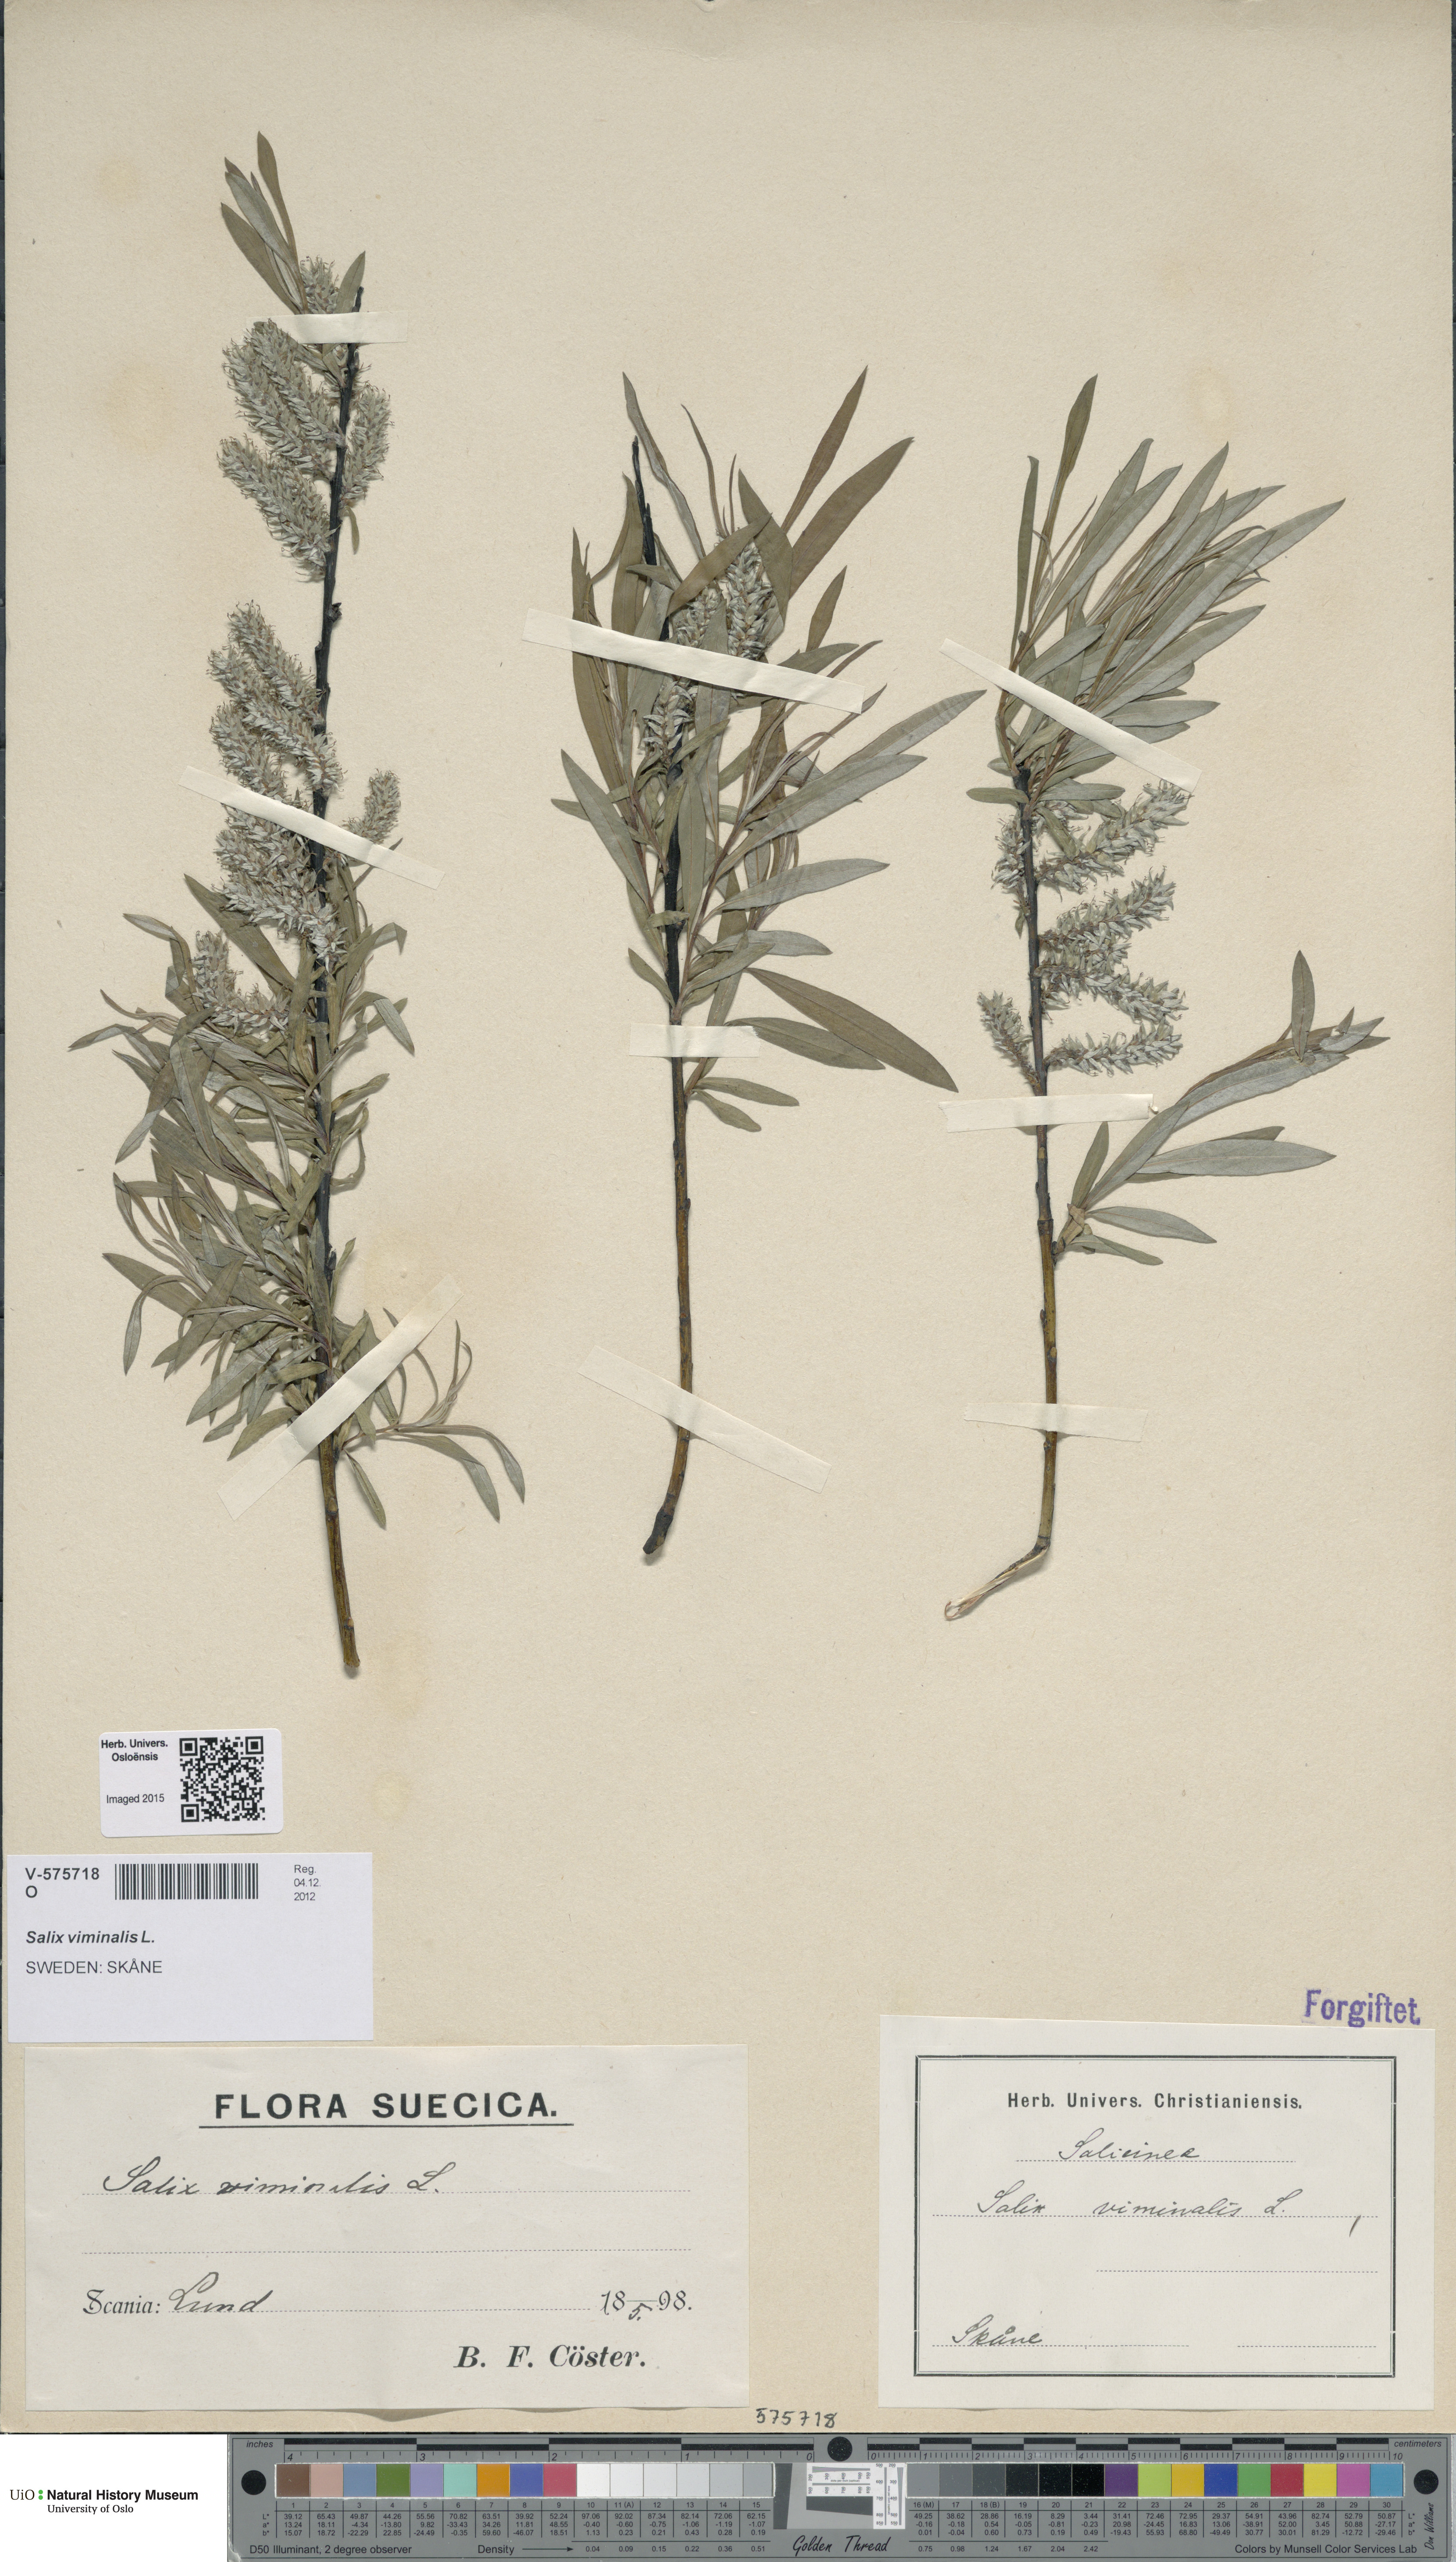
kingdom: Plantae
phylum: Tracheophyta
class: Magnoliopsida
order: Malpighiales
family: Salicaceae
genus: Salix
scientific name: Salix viminalis
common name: Osier
